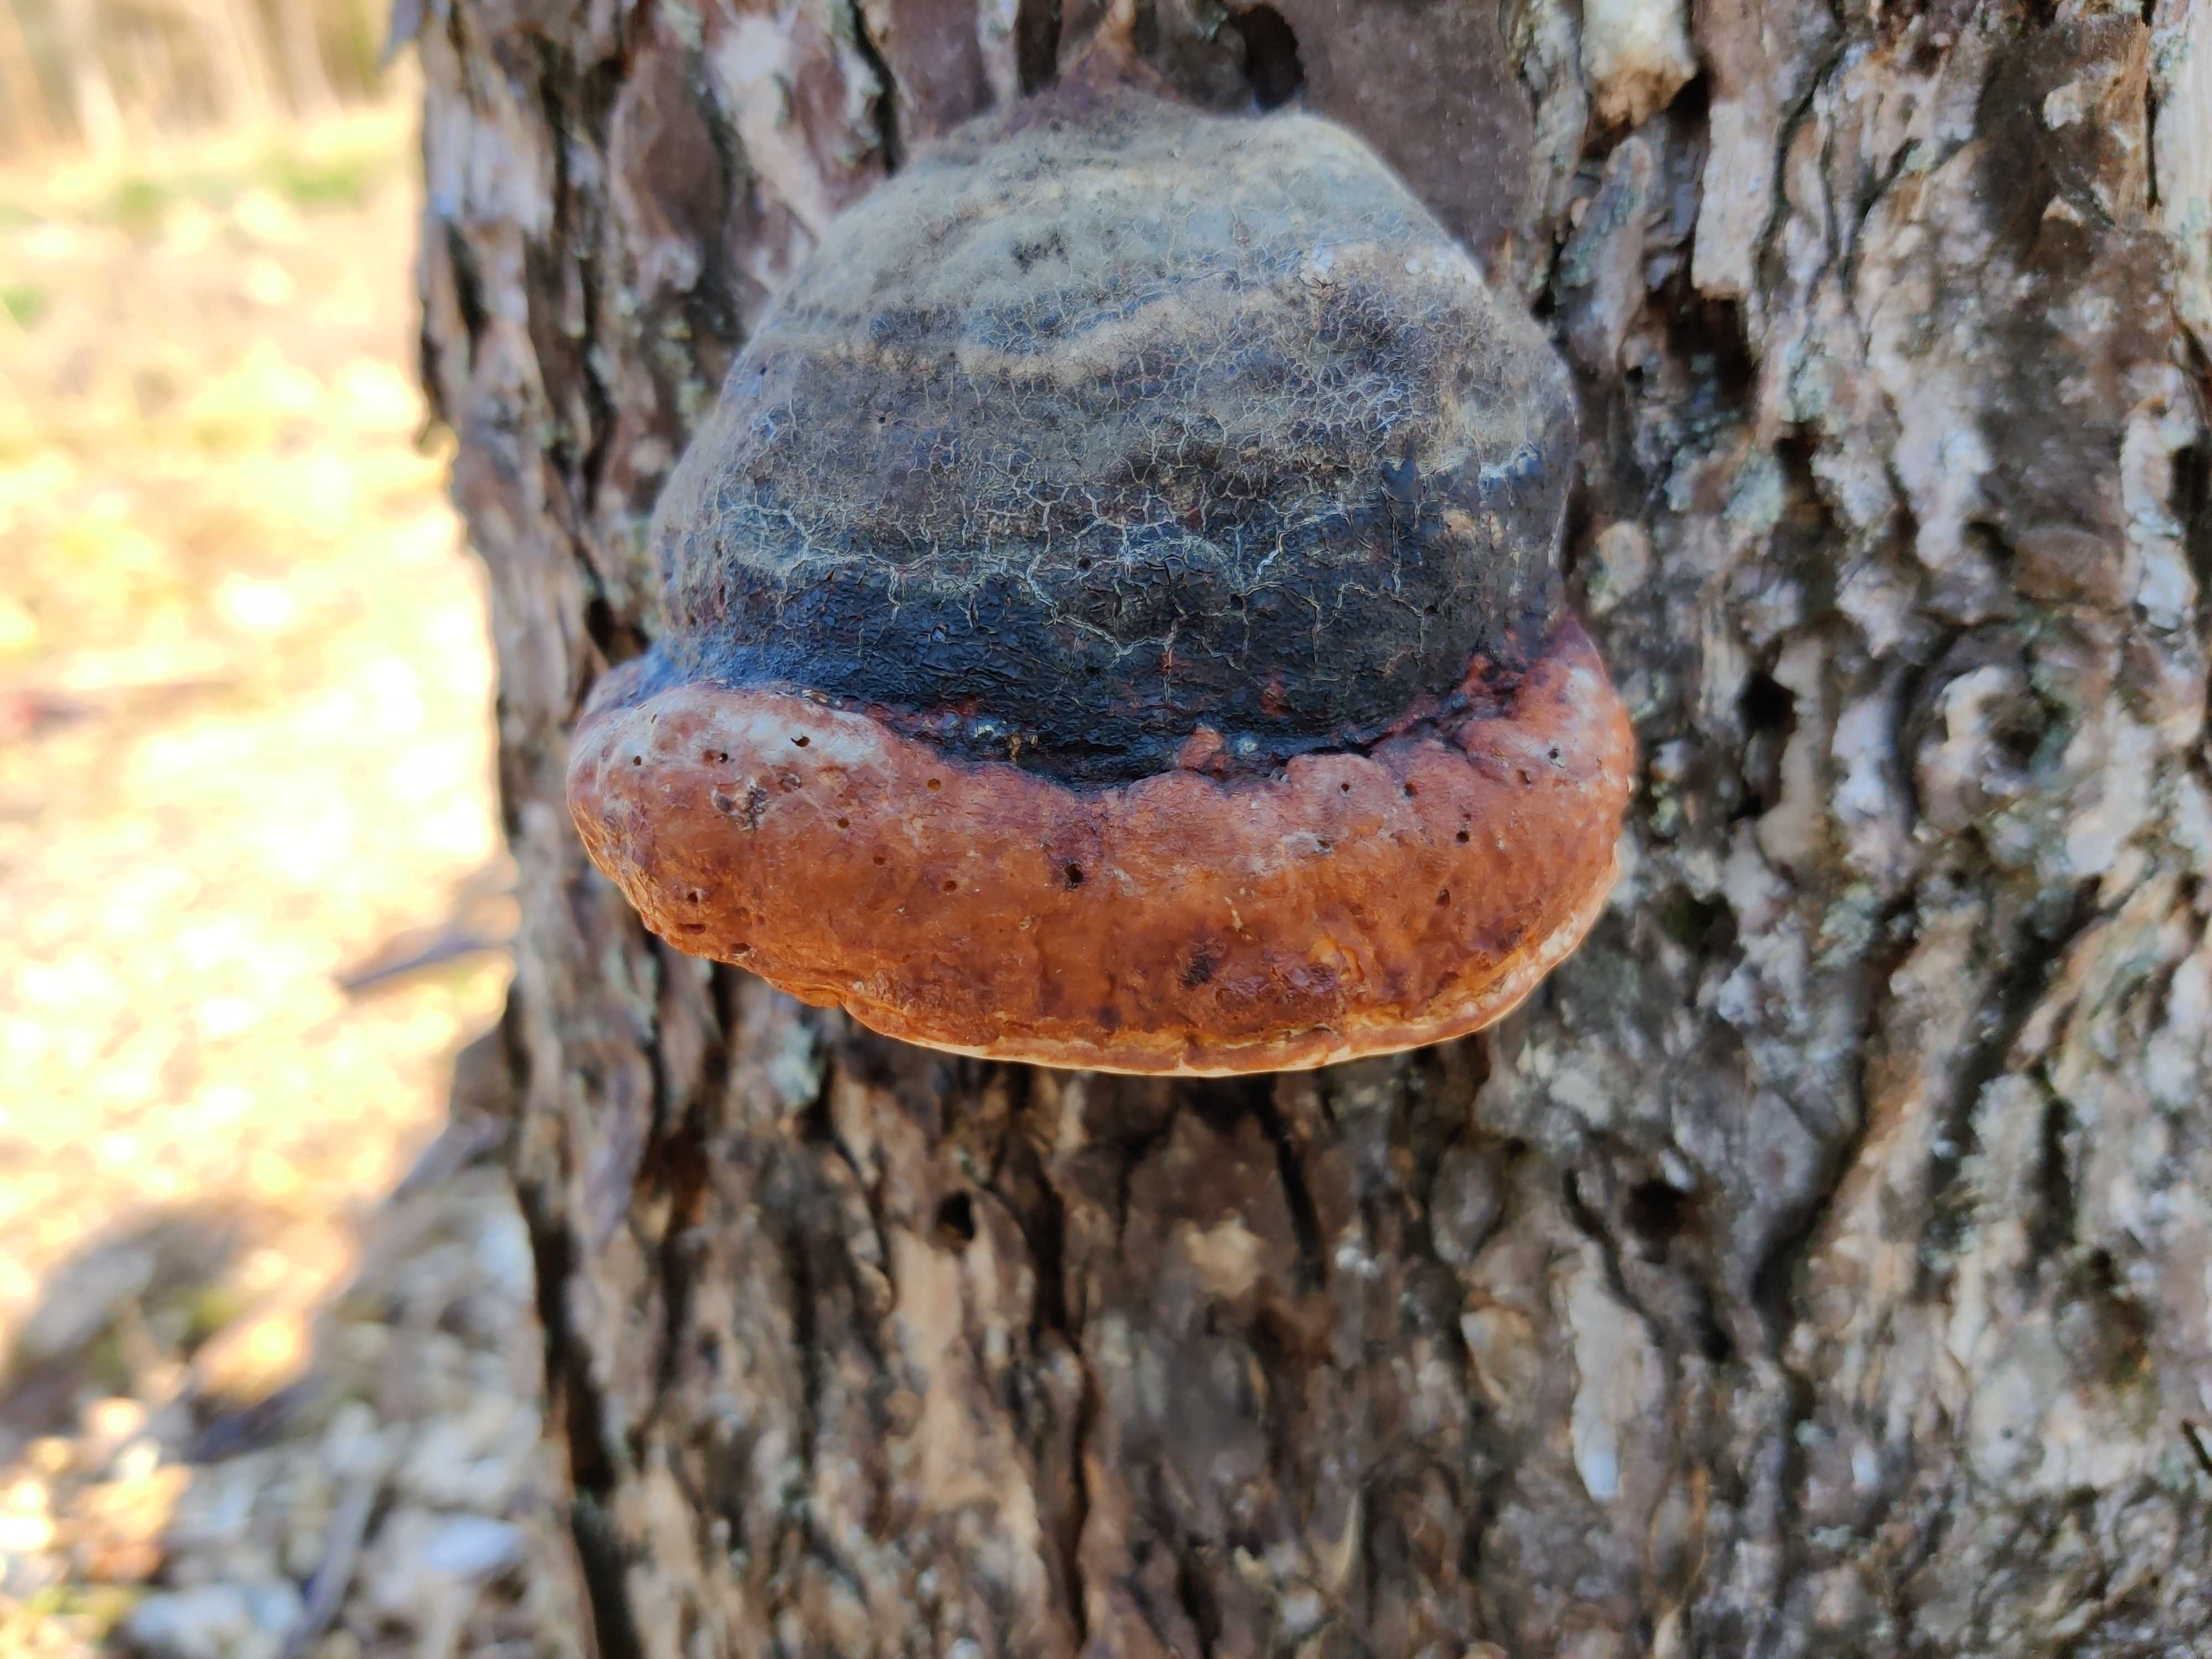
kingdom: Fungi
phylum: Basidiomycota
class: Agaricomycetes
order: Polyporales
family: Fomitopsidaceae
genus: Fomitopsis
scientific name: Fomitopsis pinicola
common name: randbæltet hovporesvamp
